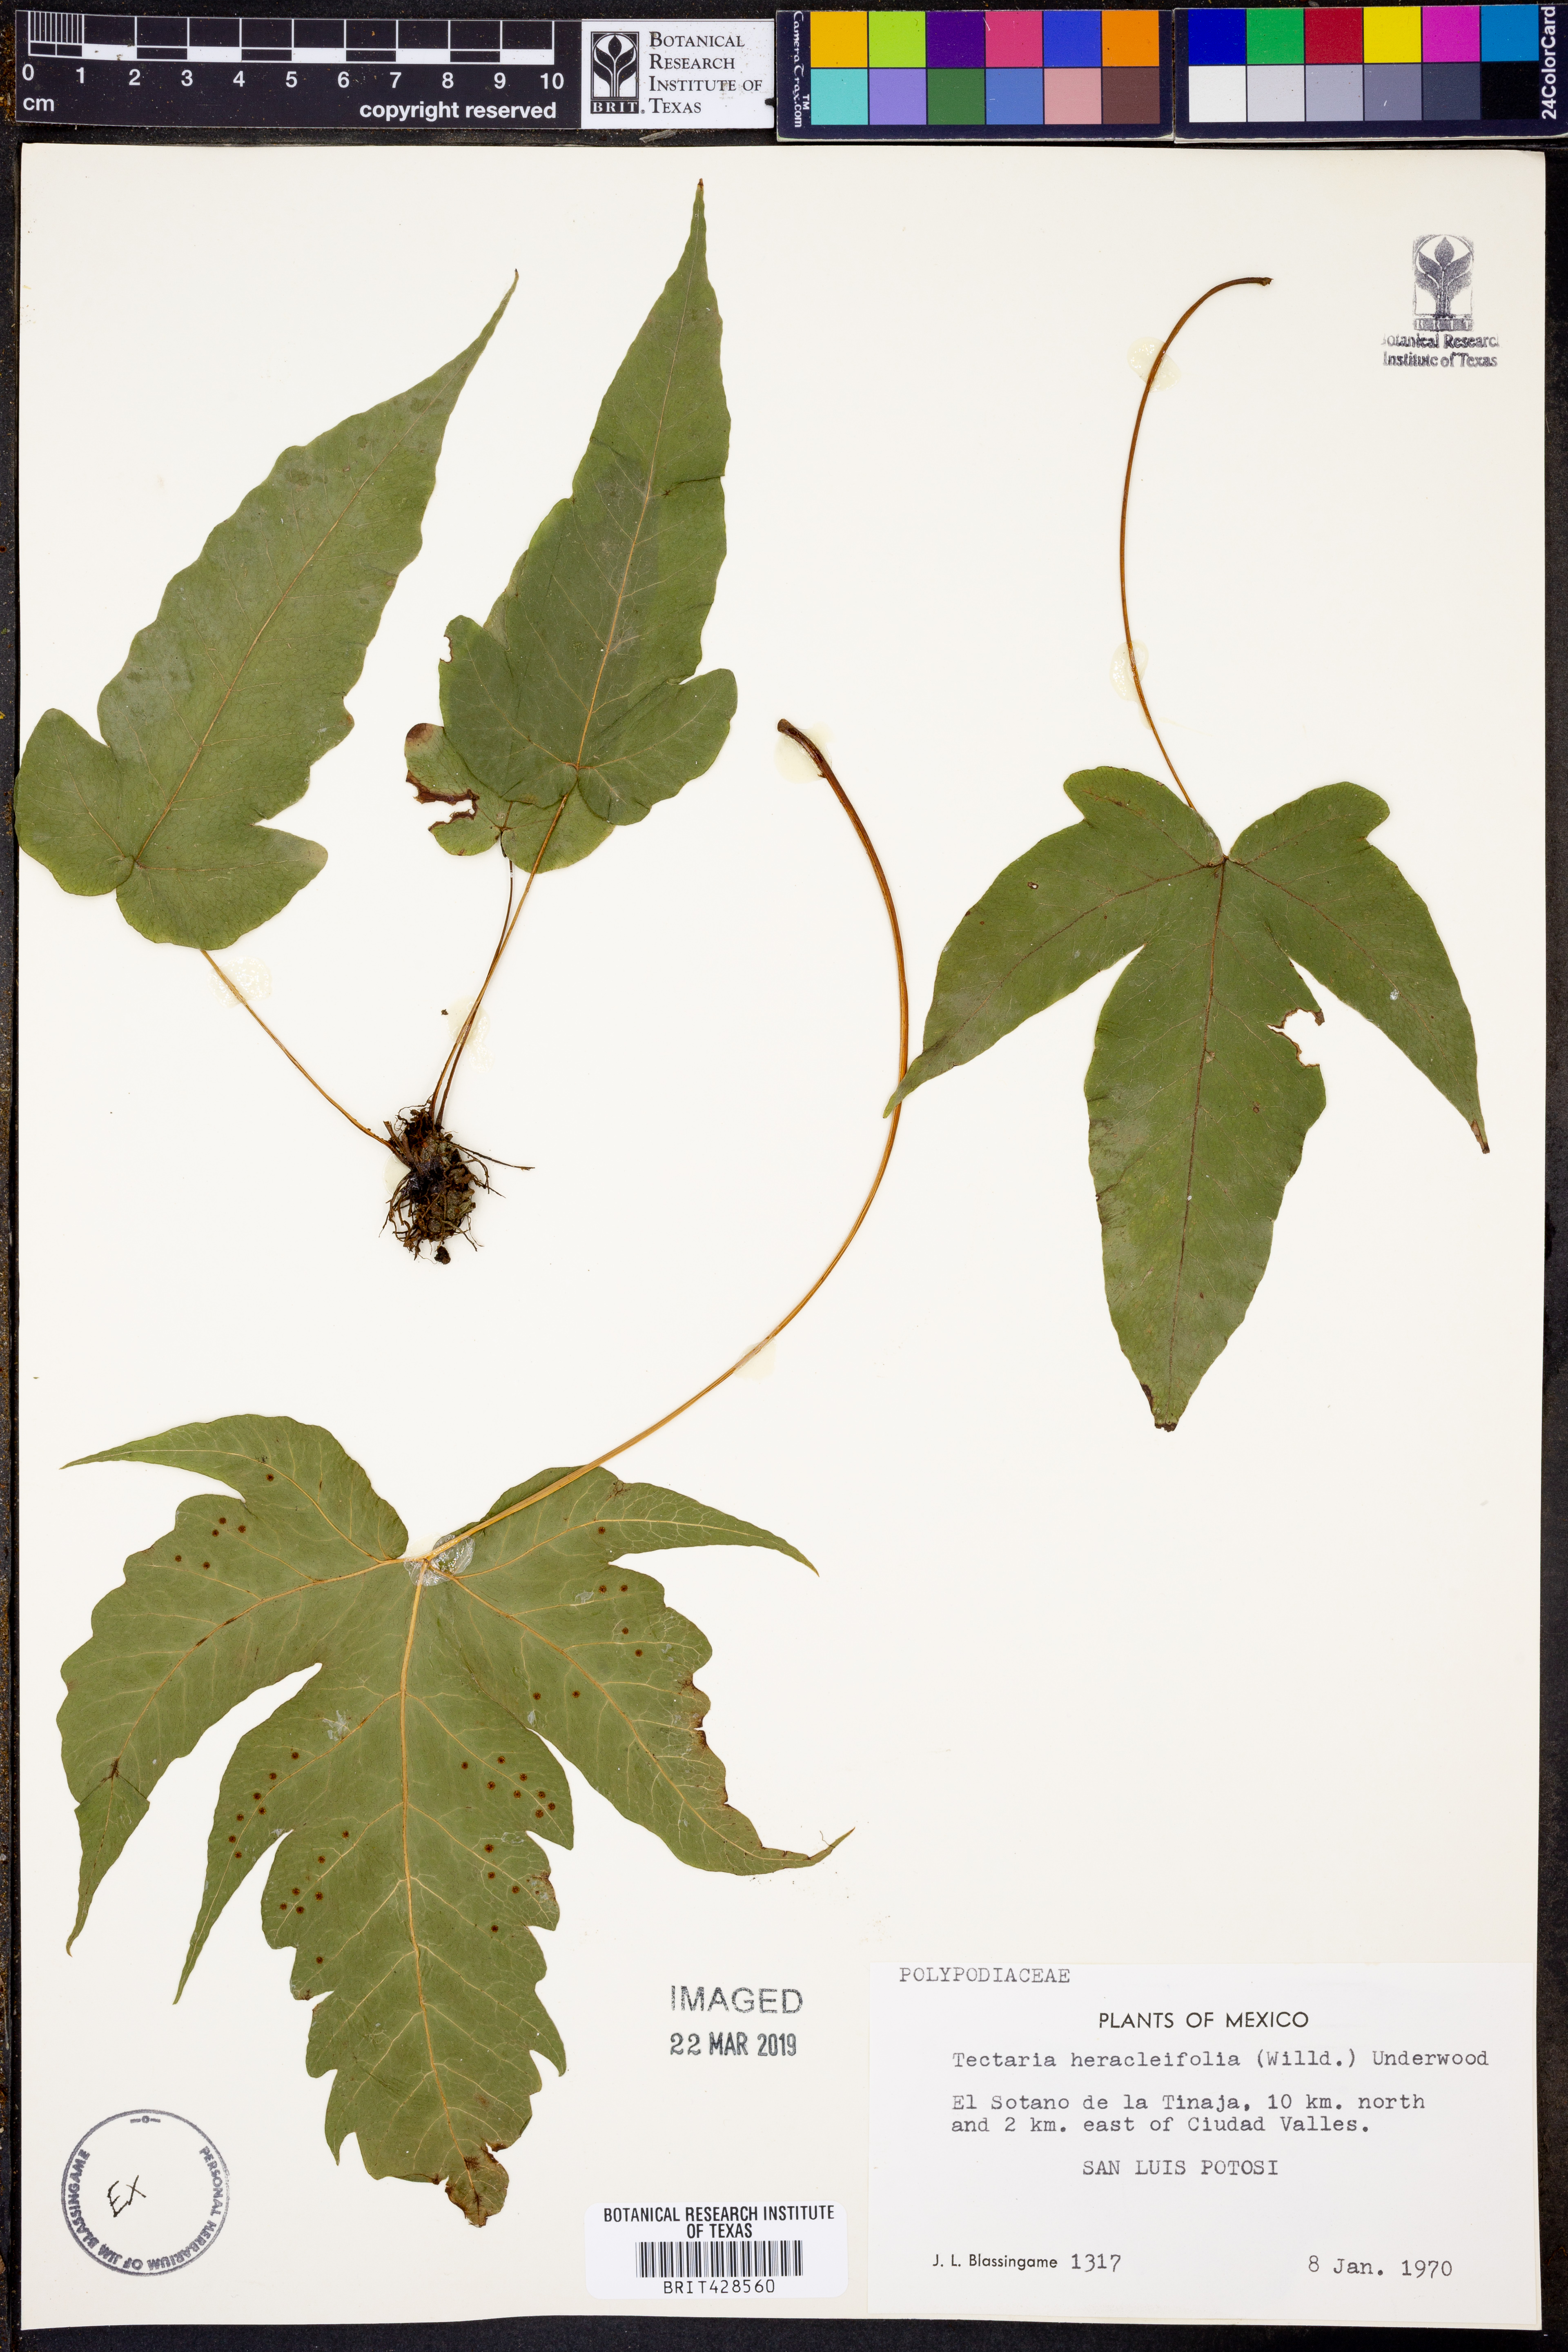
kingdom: Plantae
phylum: Tracheophyta
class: Polypodiopsida
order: Polypodiales
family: Tectariaceae
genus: Tectaria
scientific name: Tectaria heracleifolia
